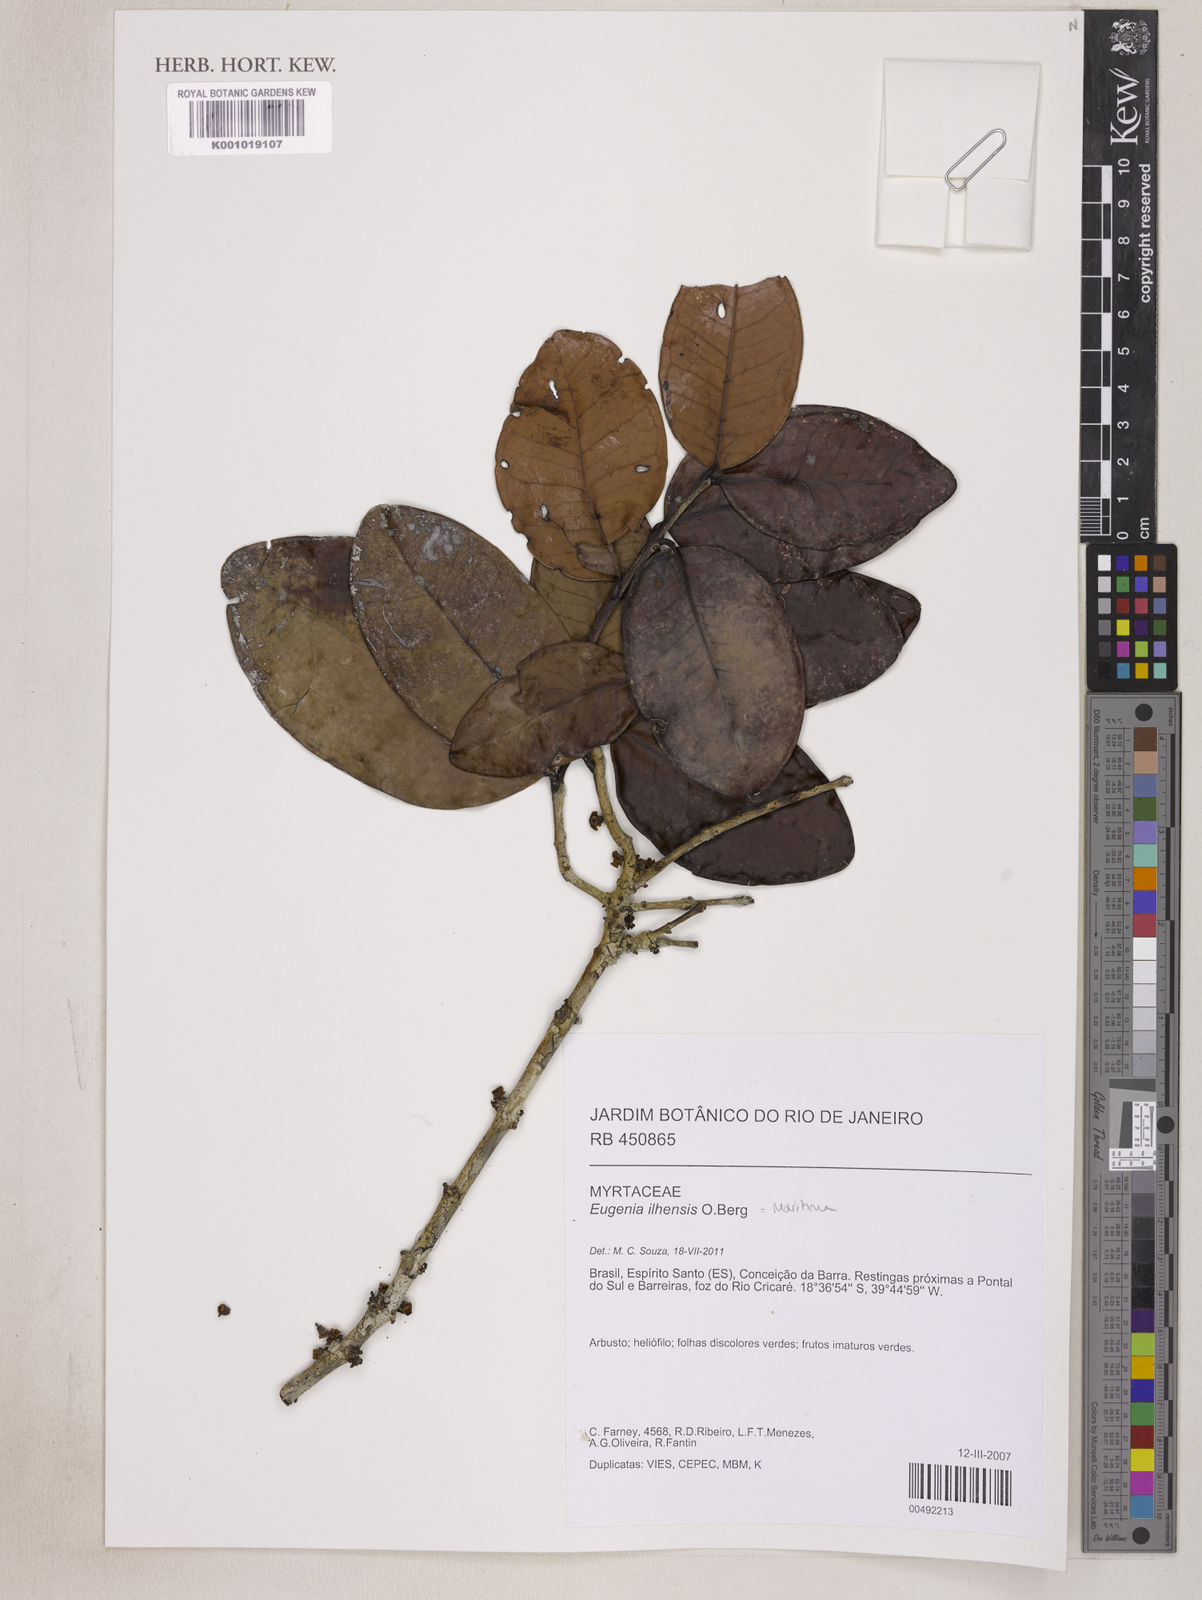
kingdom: Plantae
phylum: Tracheophyta
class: Magnoliopsida
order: Myrtales
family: Myrtaceae
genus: Eugenia
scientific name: Eugenia maritima
